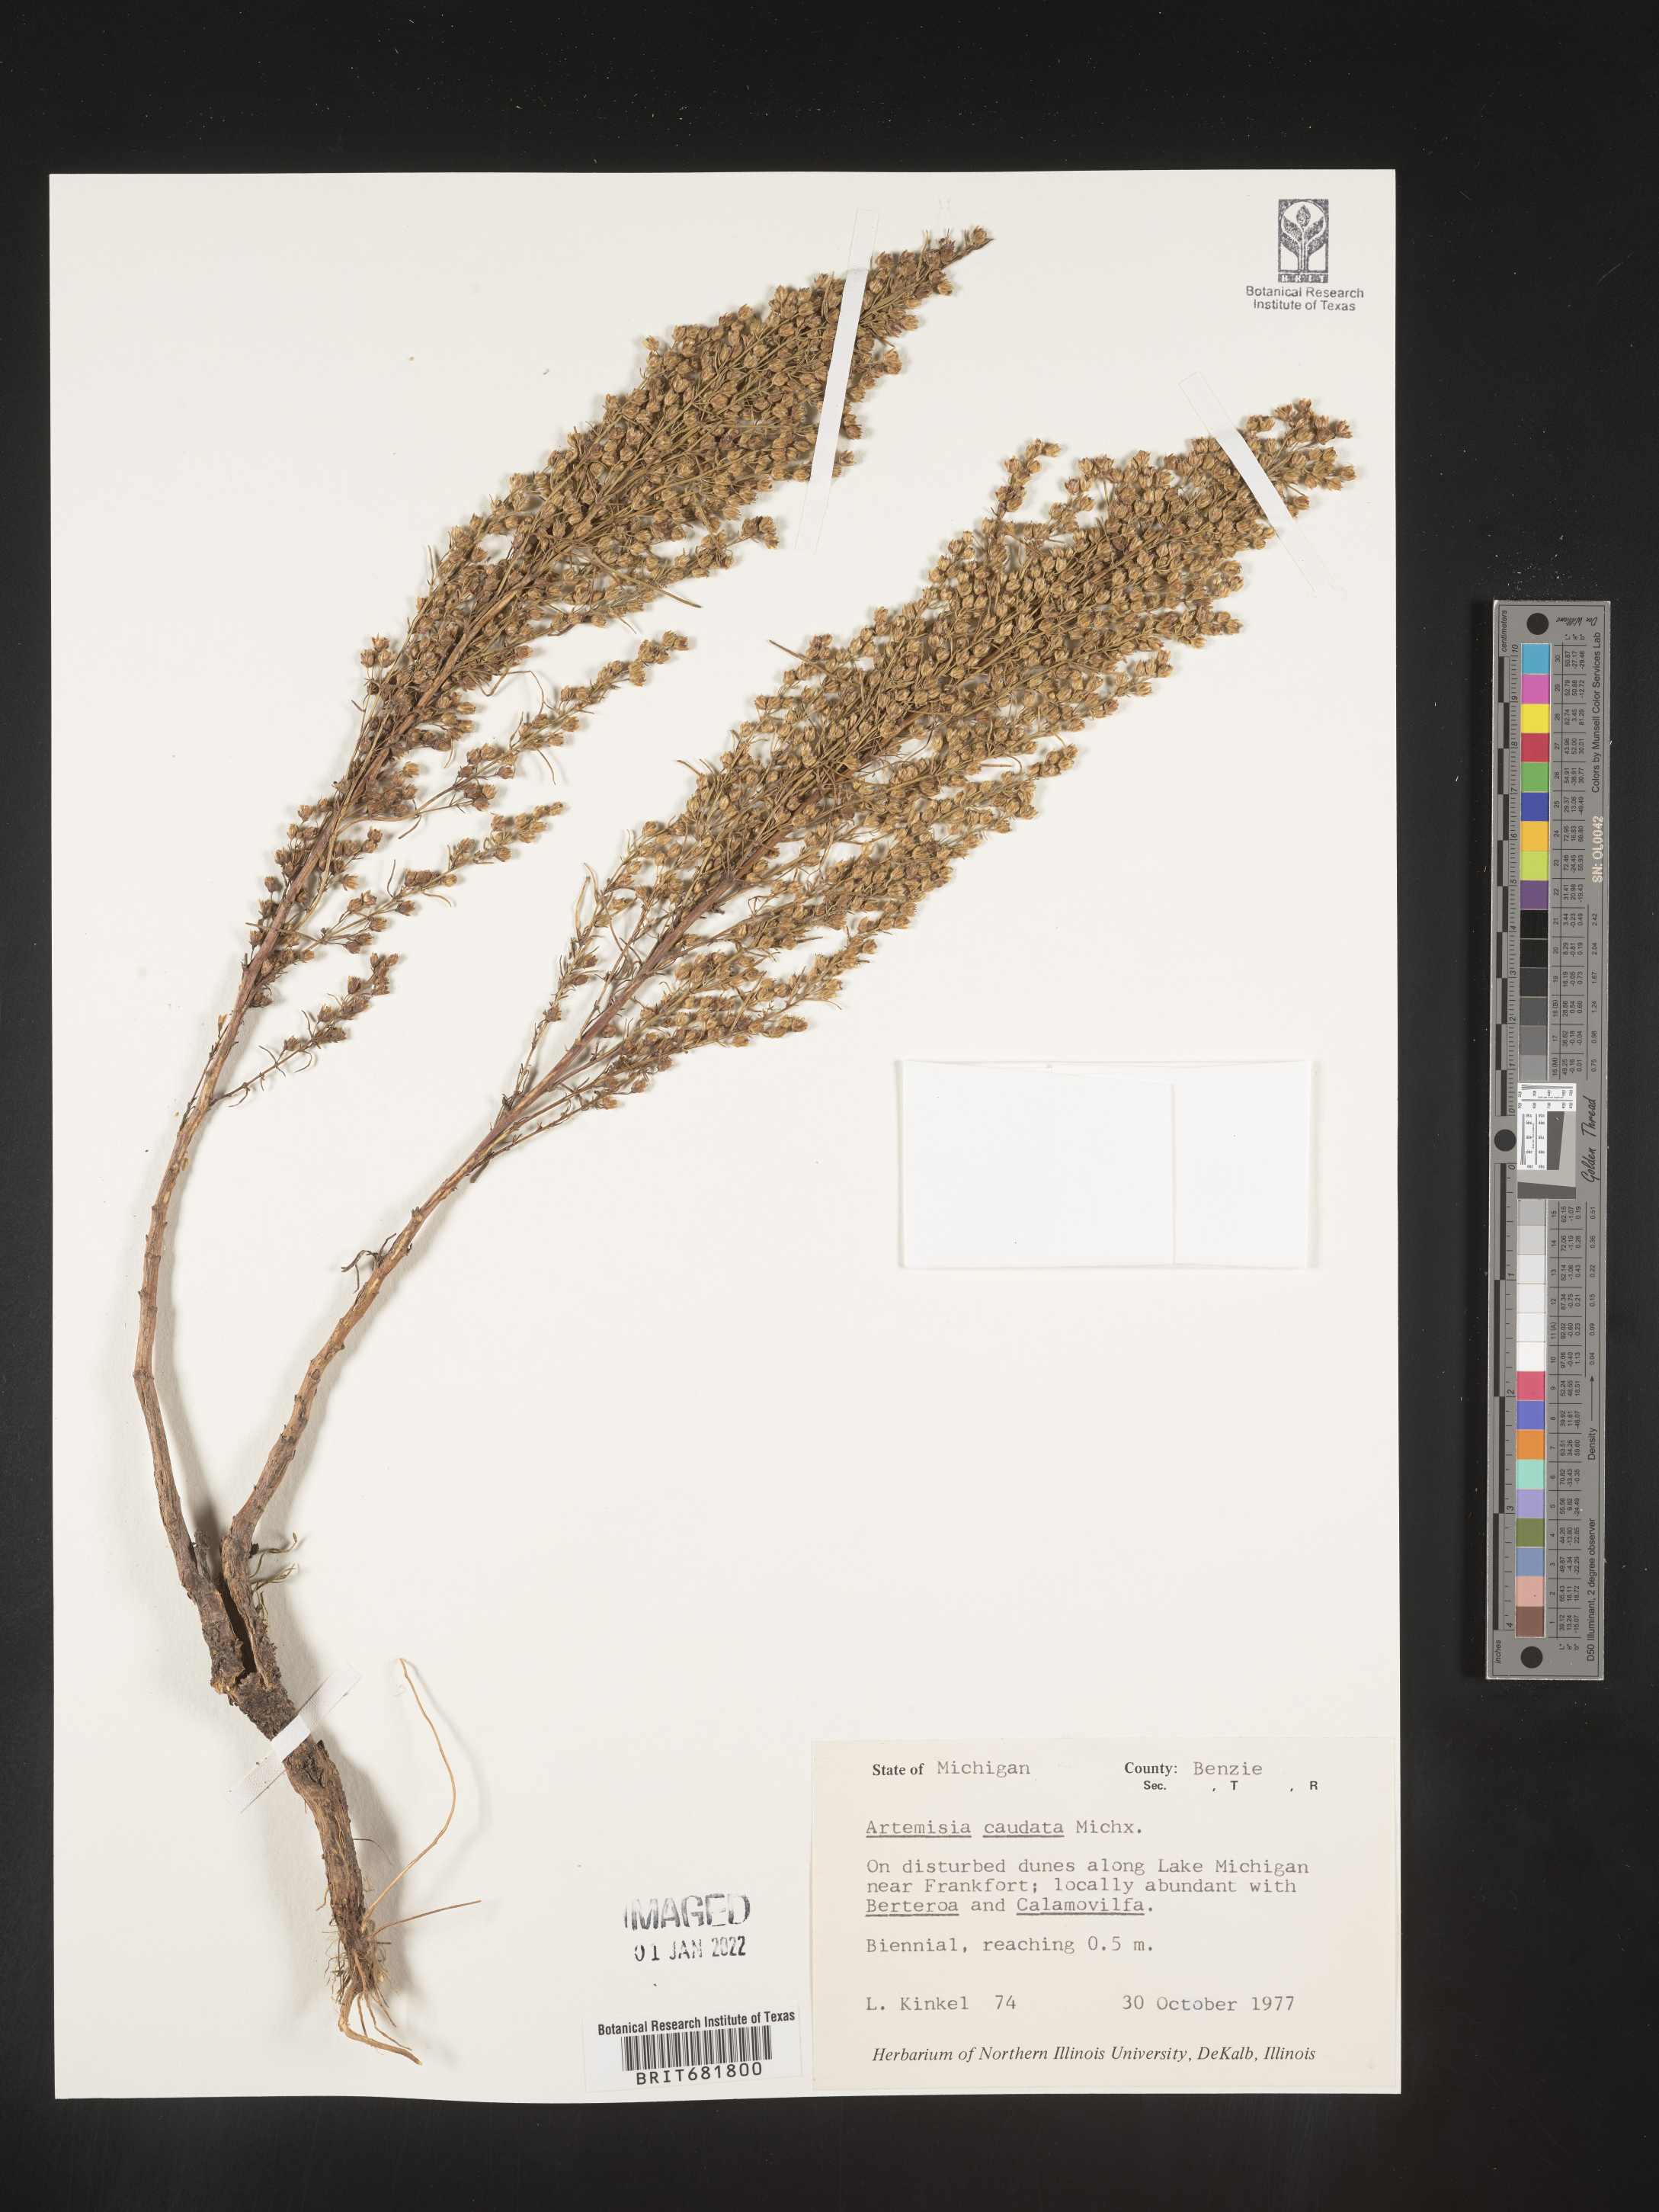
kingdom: Plantae
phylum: Tracheophyta
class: Magnoliopsida
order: Asterales
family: Asteraceae
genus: Artemisia
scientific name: Artemisia campestris
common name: Field wormwood
